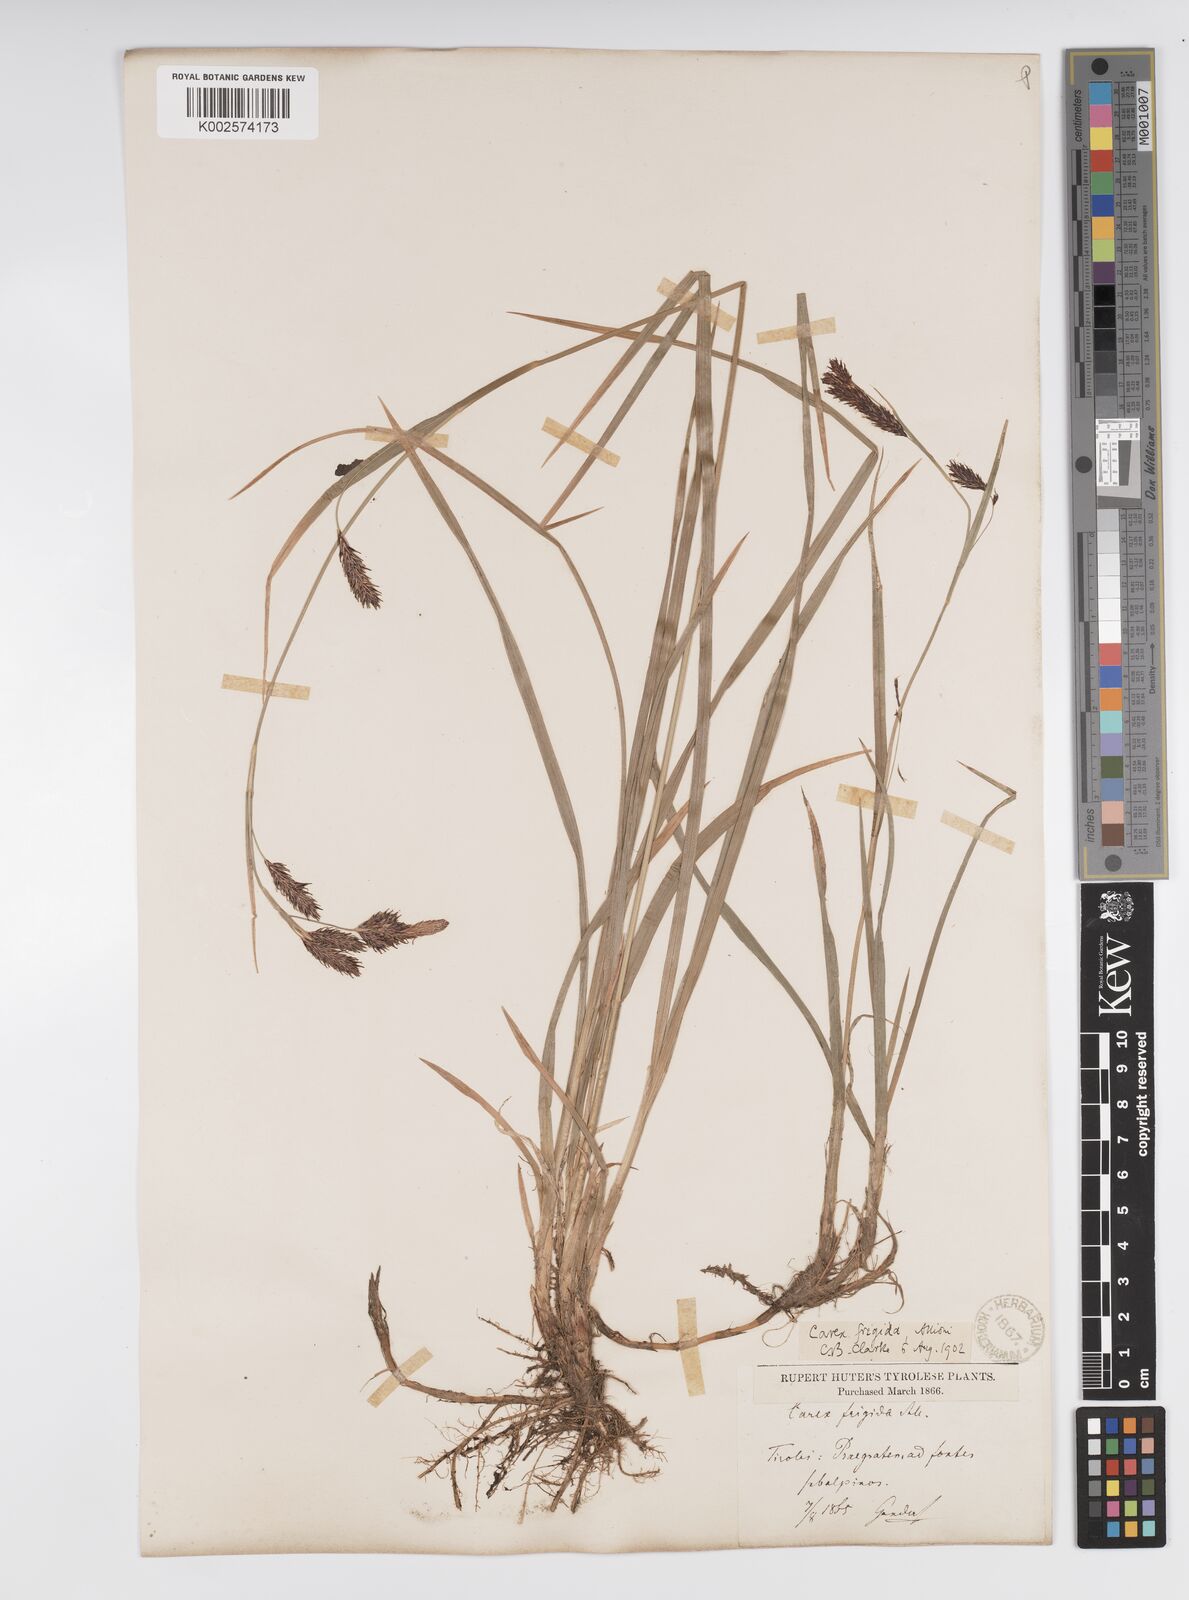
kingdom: Plantae
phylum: Tracheophyta
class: Liliopsida
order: Poales
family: Cyperaceae
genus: Carex
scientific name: Carex frigida
